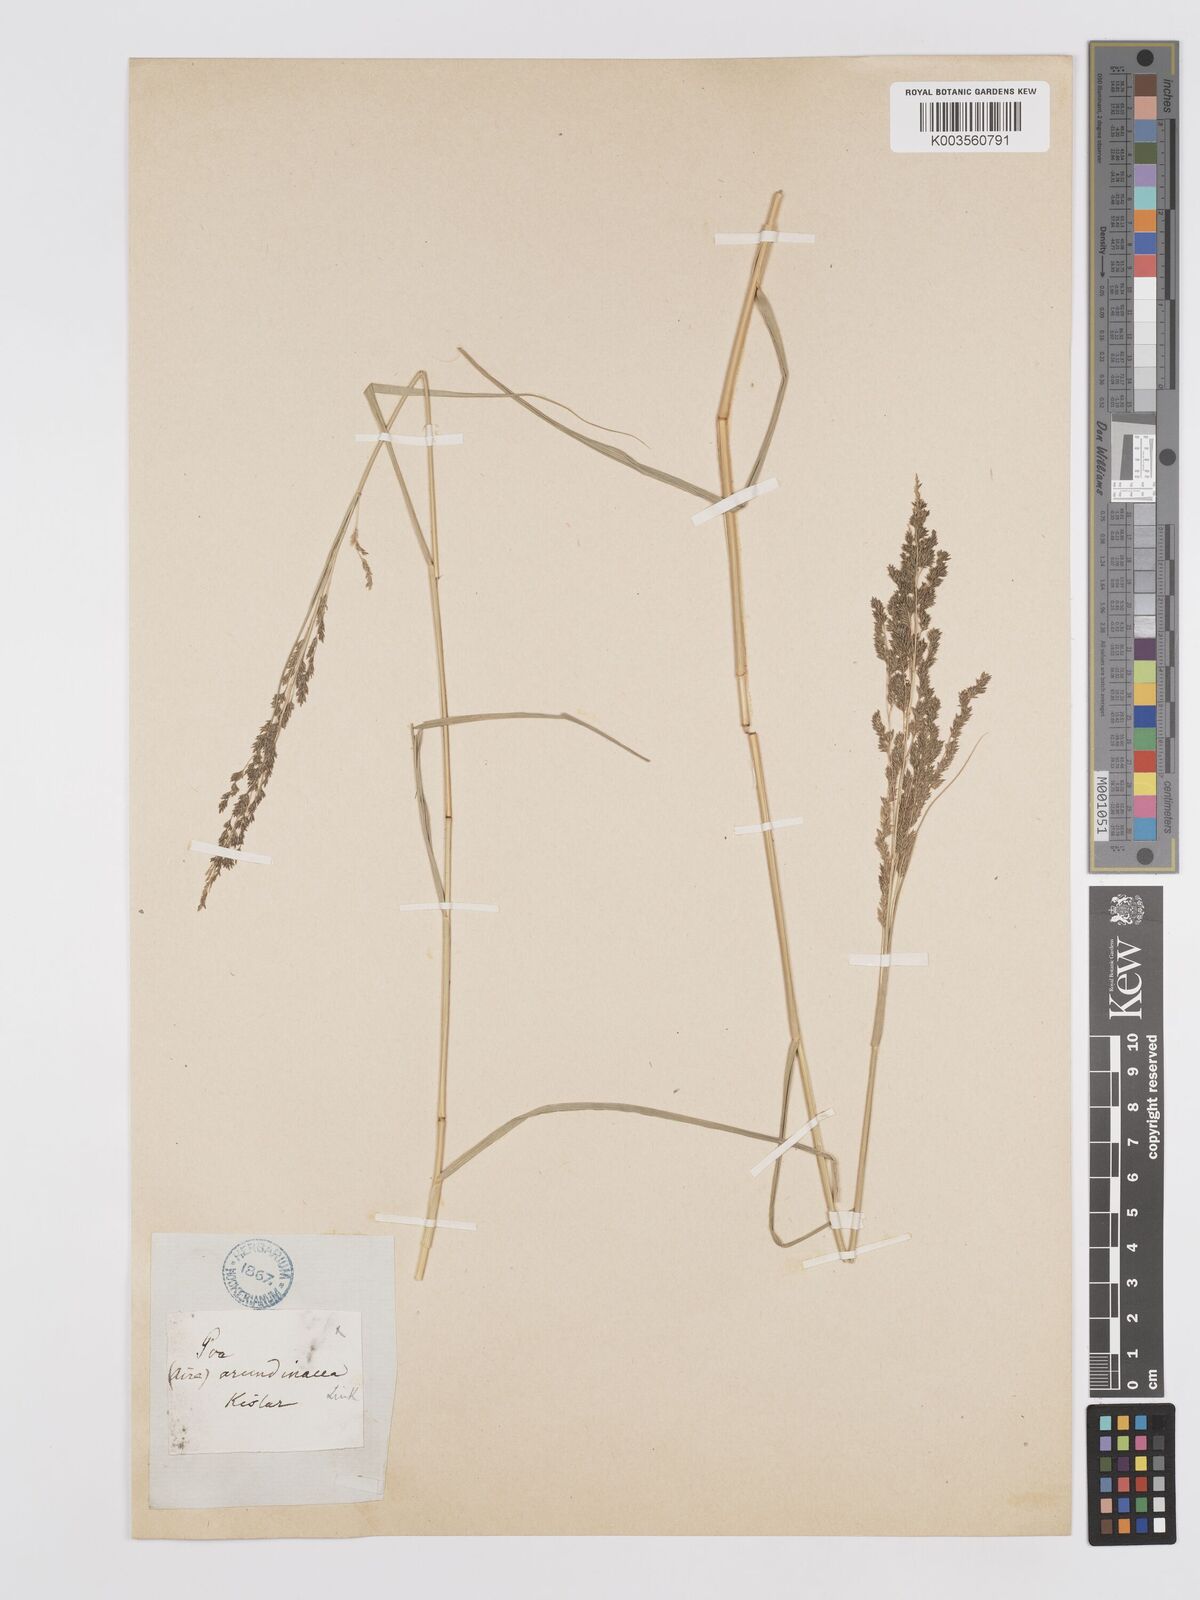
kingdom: Plantae
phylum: Tracheophyta
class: Liliopsida
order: Poales
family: Poaceae
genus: Eragrostis
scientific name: Eragrostis collina
